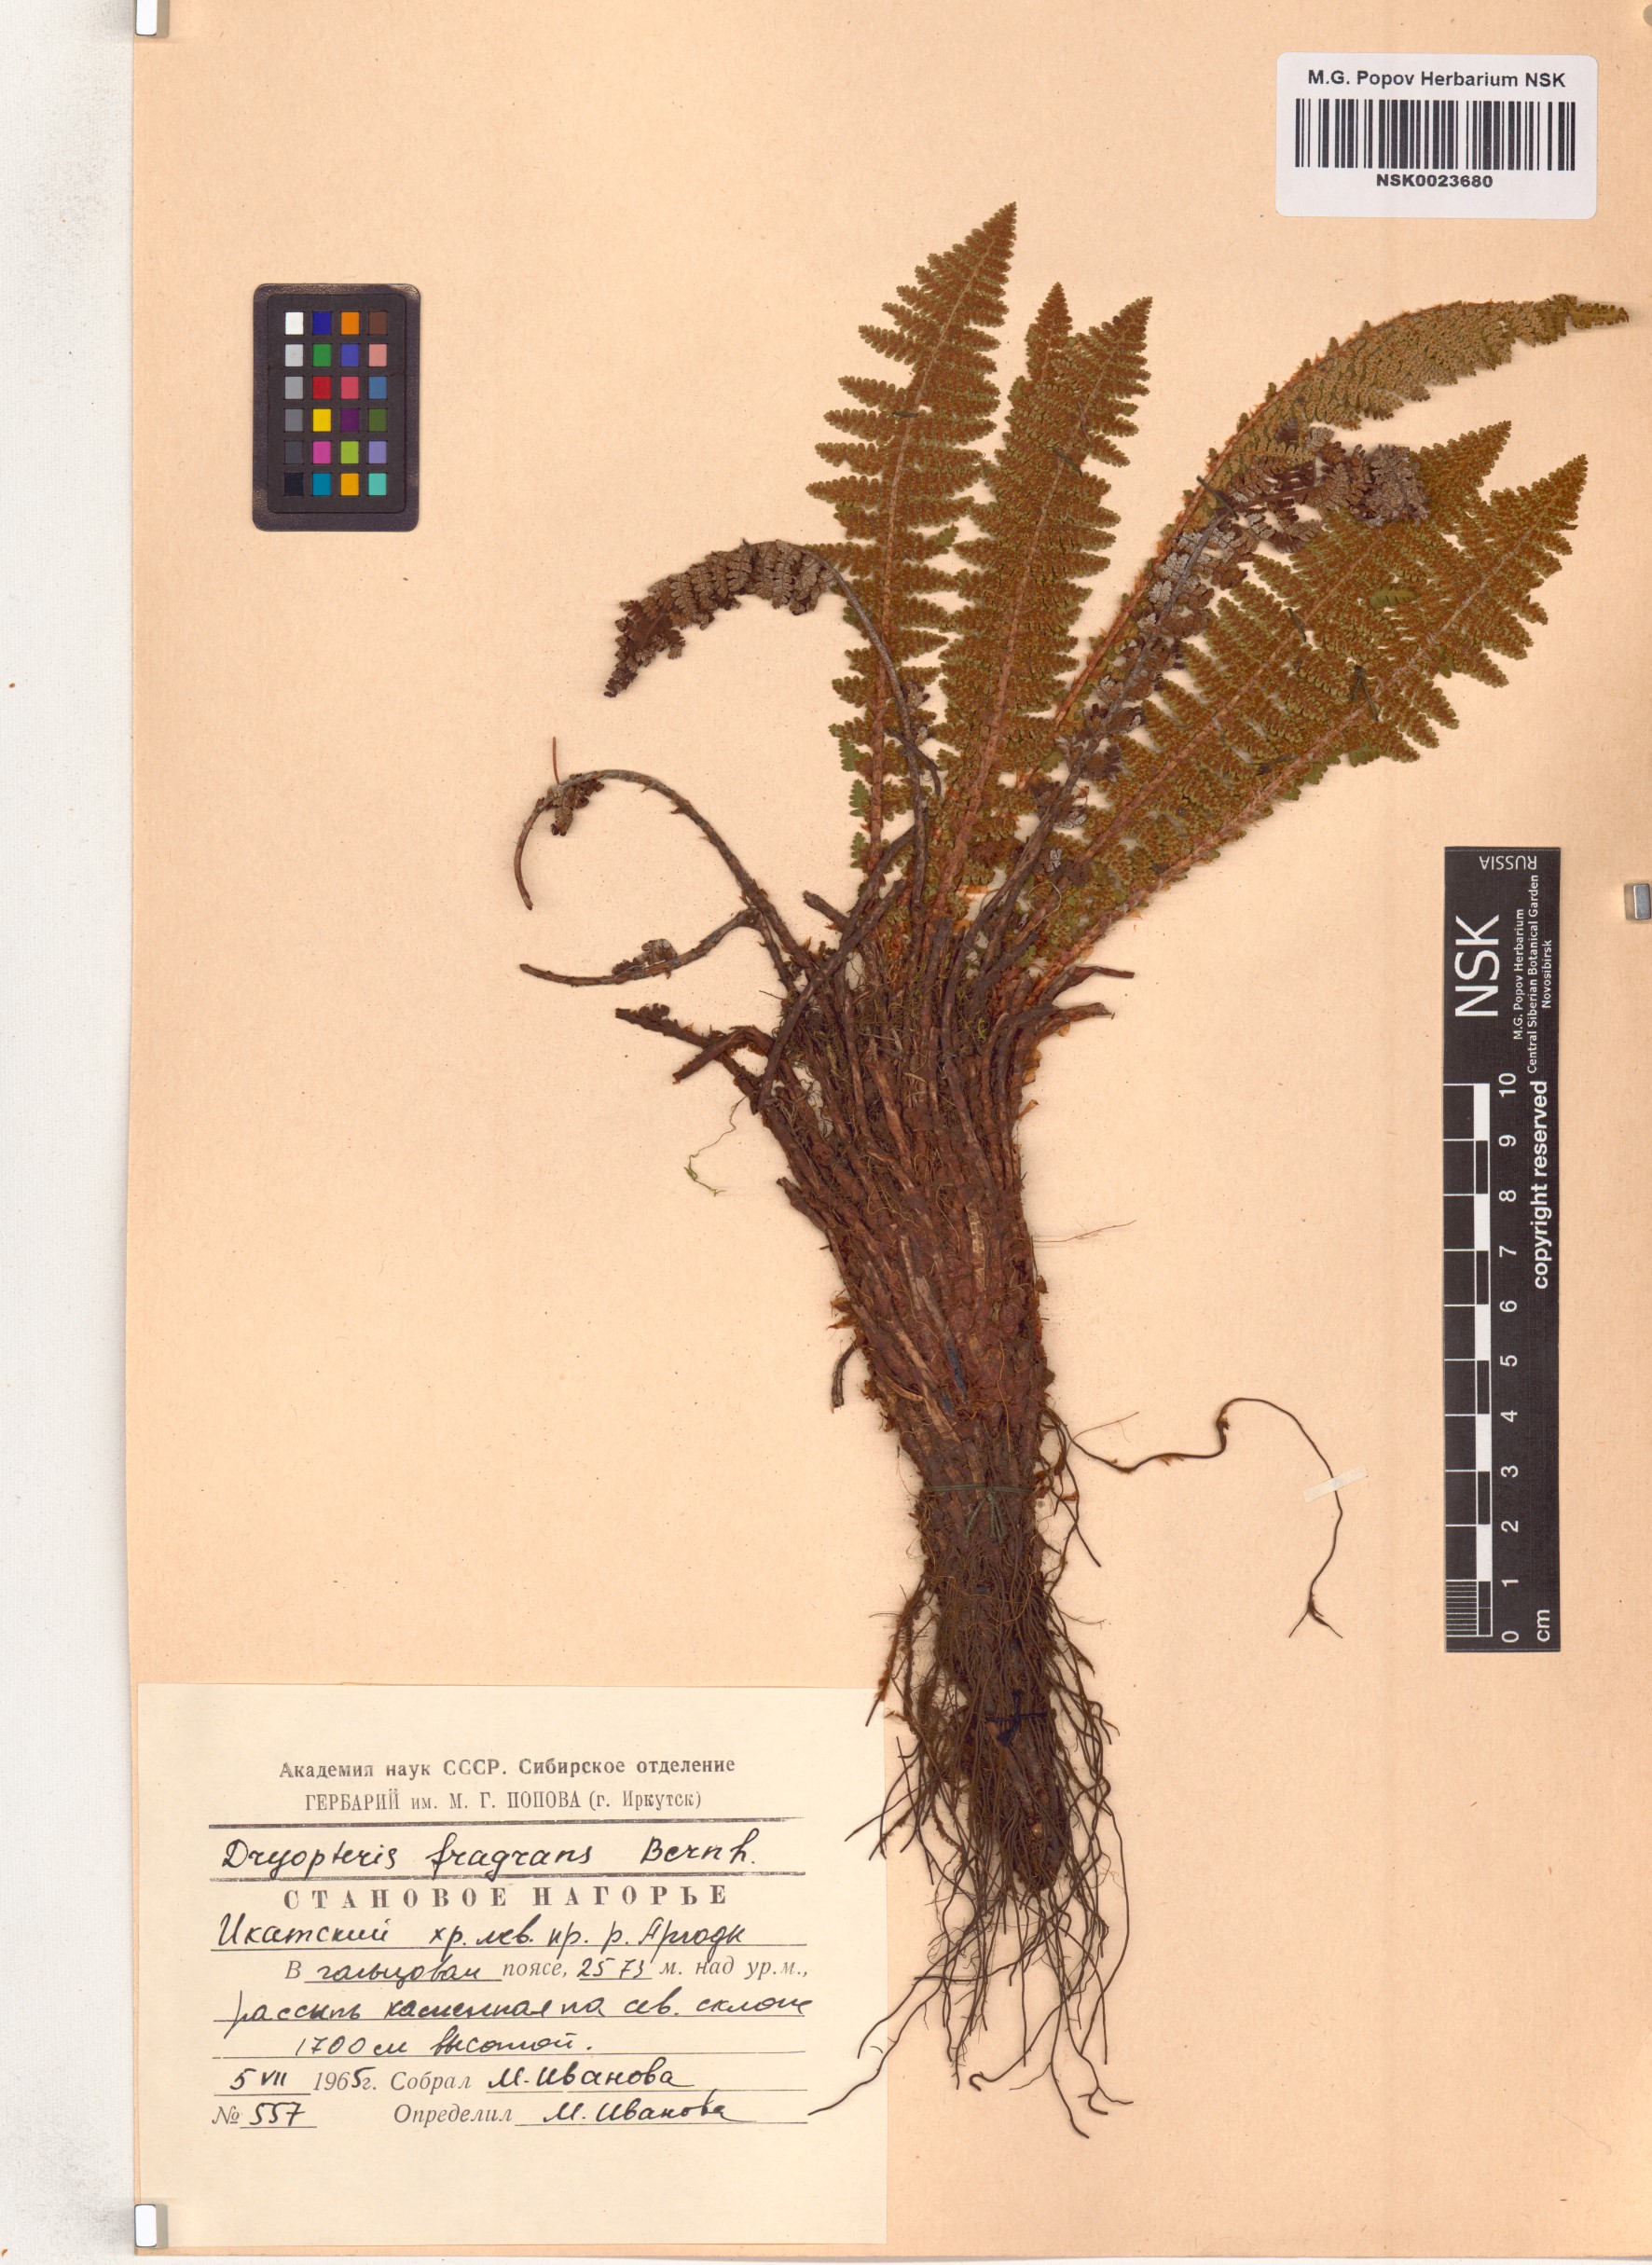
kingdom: Plantae
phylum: Tracheophyta
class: Polypodiopsida
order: Polypodiales
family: Dryopteridaceae
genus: Dryopteris
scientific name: Dryopteris fragrans
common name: Fragrant wood fern
